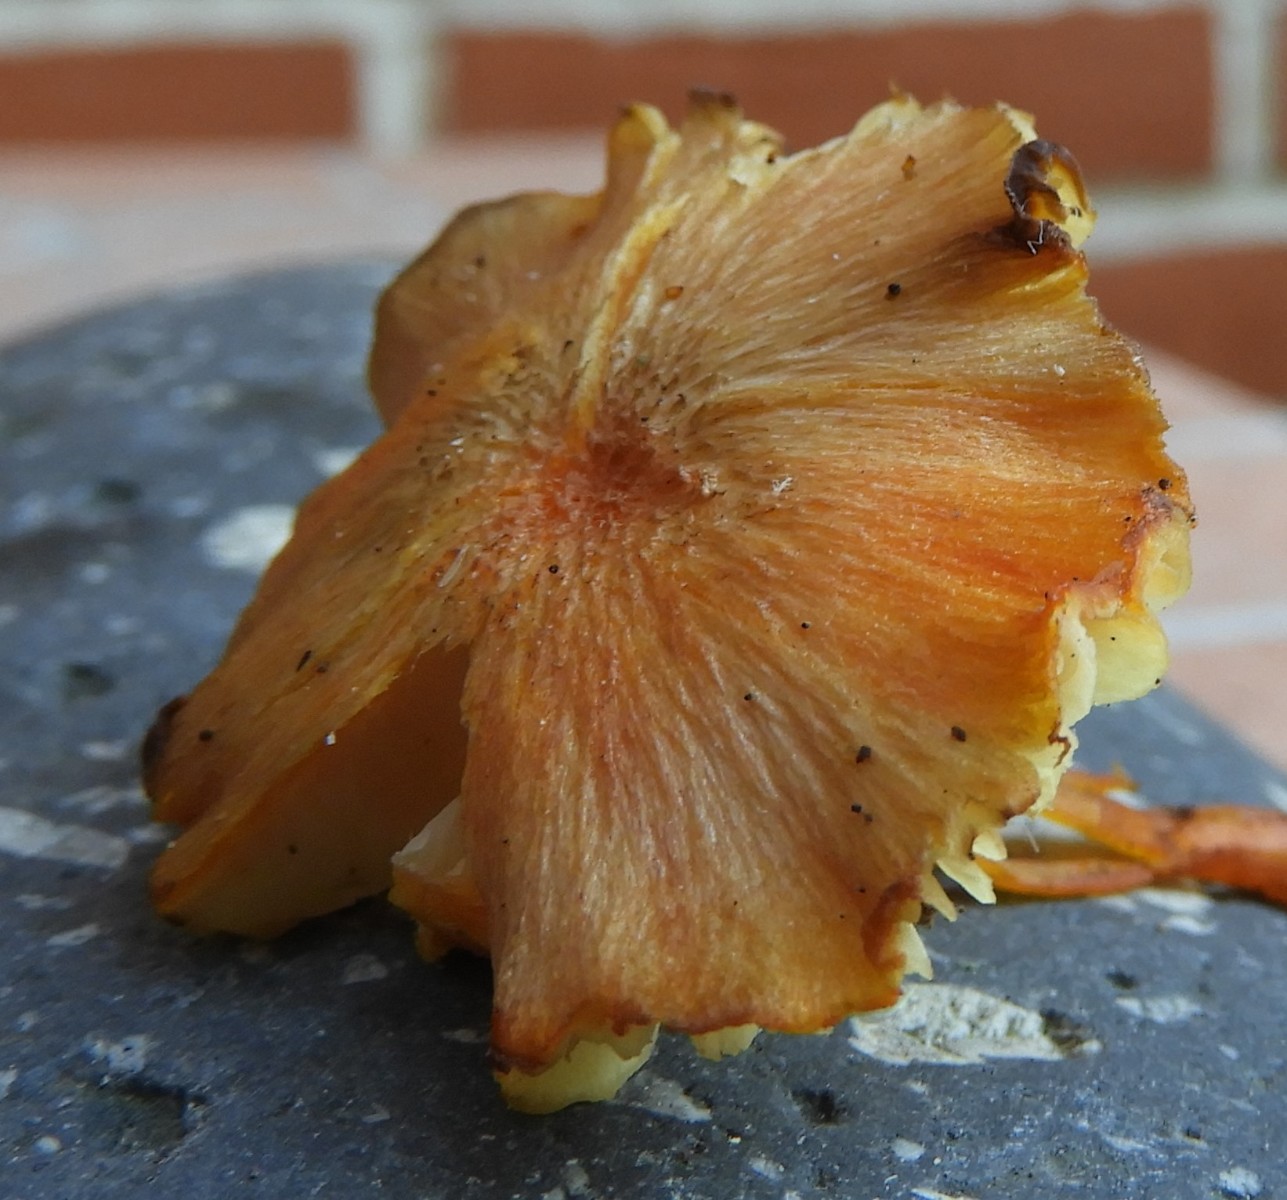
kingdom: Fungi
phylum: Basidiomycota
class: Agaricomycetes
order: Agaricales
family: Hygrophoraceae
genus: Hygrocybe
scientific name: Hygrocybe cantharellus
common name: kantarel-vokshat
